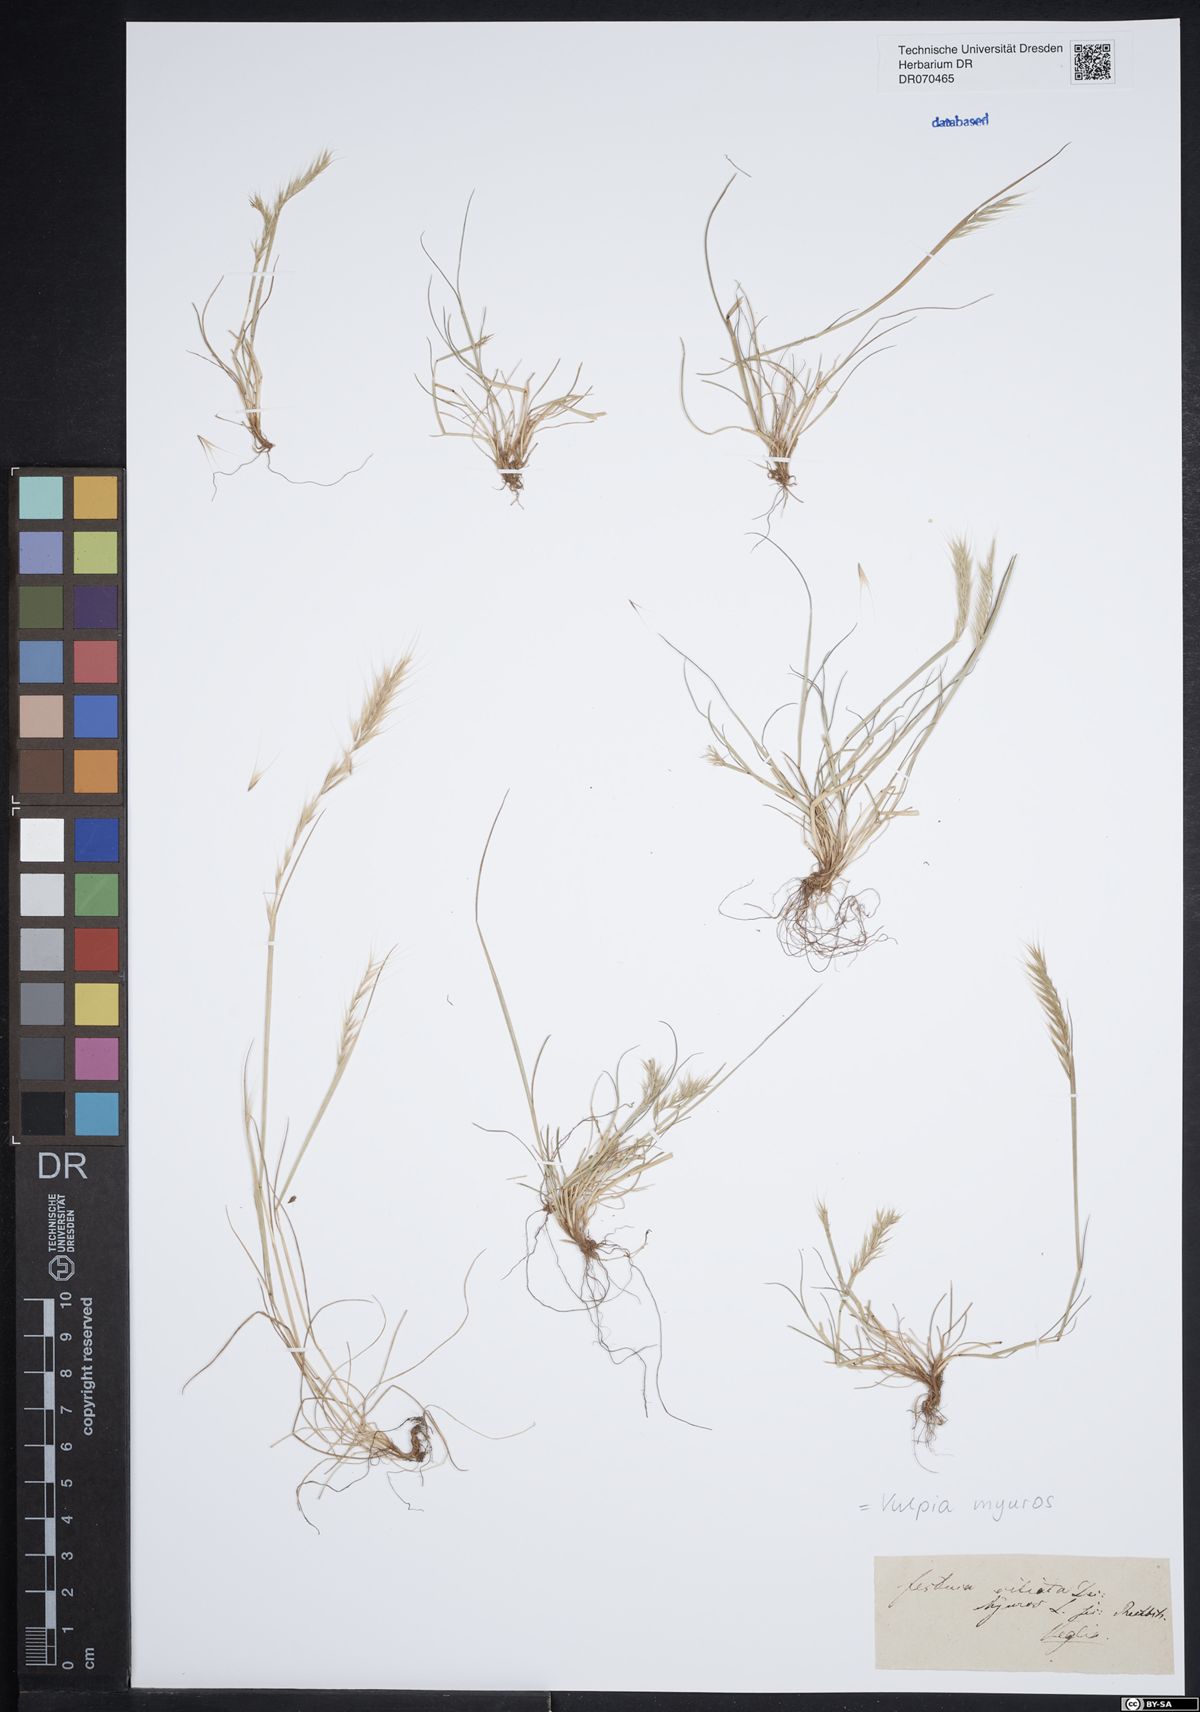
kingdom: Plantae
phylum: Tracheophyta
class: Liliopsida
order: Poales
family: Poaceae
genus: Festuca
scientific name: Festuca myuros
